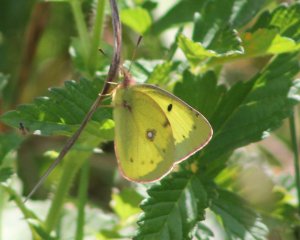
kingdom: Animalia
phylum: Arthropoda
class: Insecta
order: Lepidoptera
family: Pieridae
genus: Colias
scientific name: Colias philodice
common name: Clouded Sulphur
